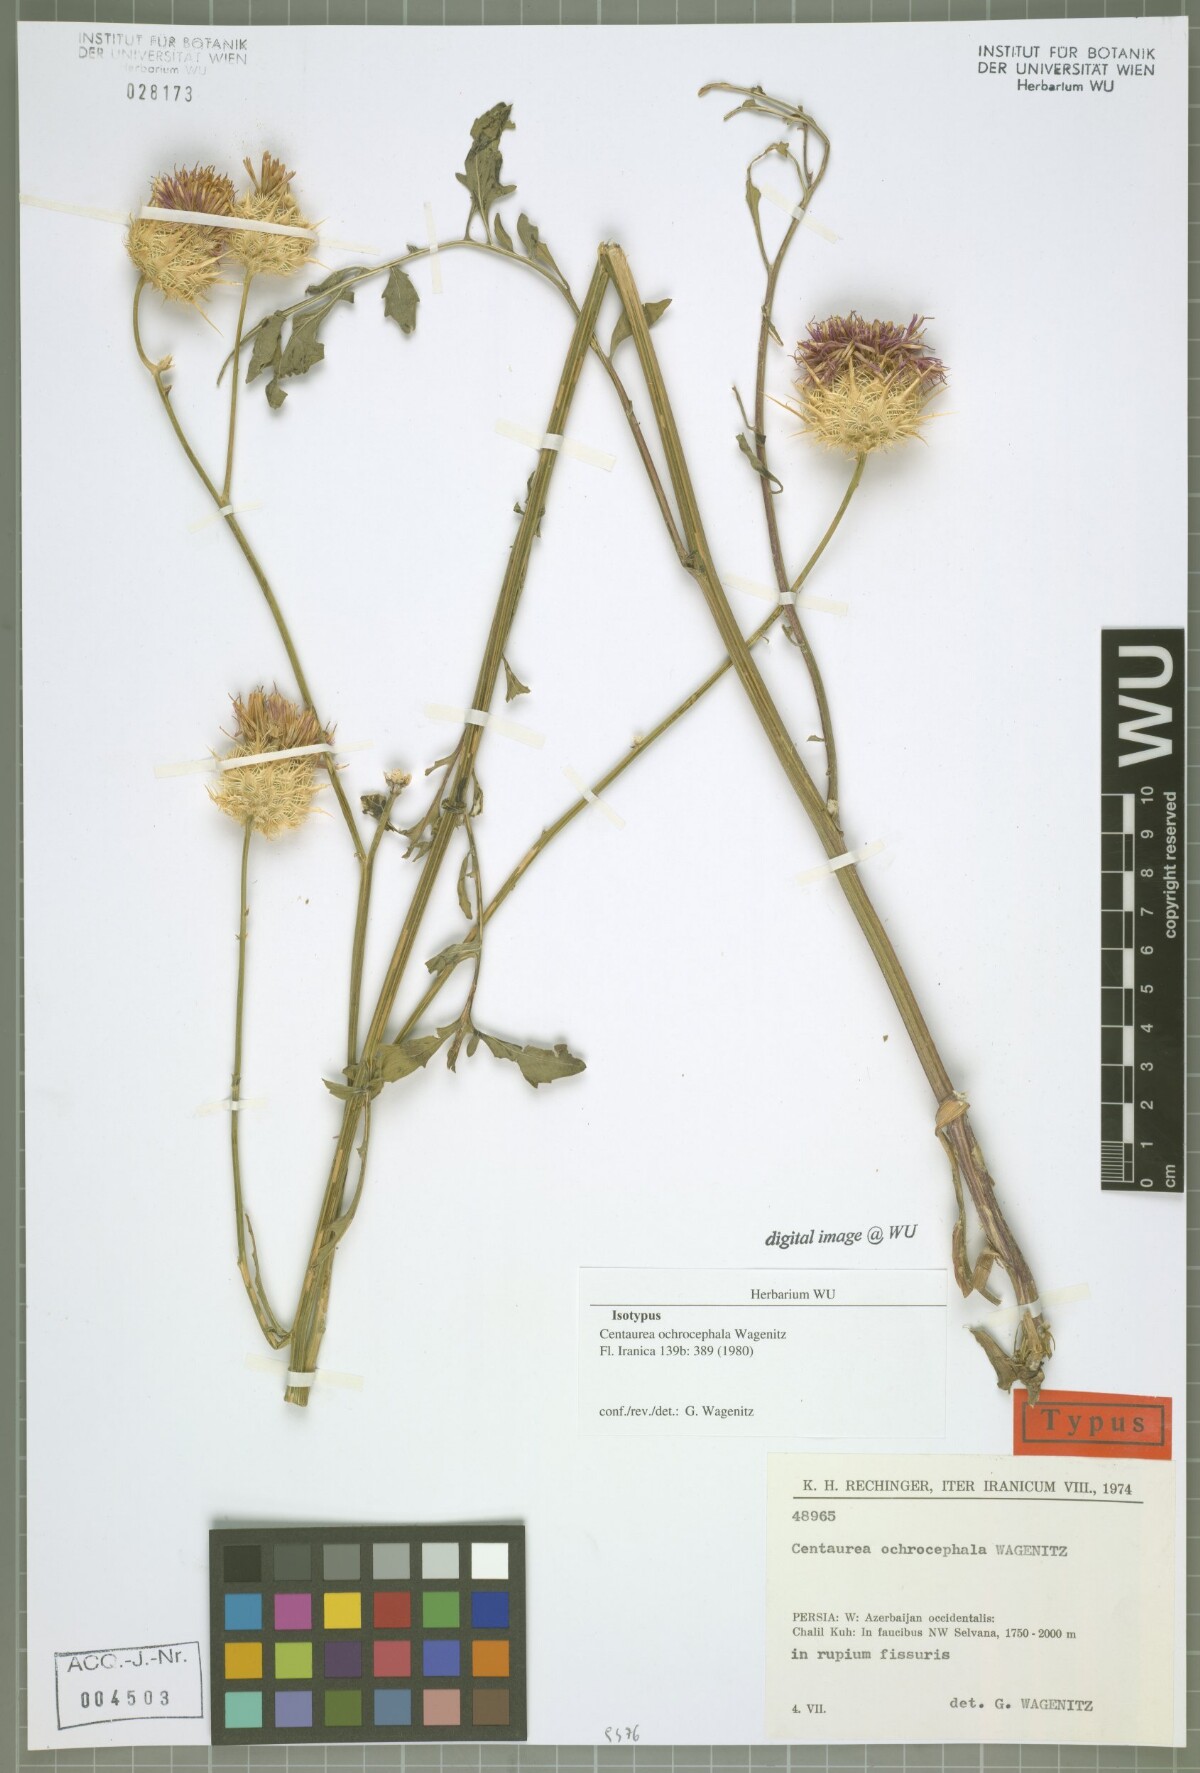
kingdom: Plantae
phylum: Tracheophyta
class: Magnoliopsida
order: Asterales
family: Asteraceae
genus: Centaurea
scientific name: Centaurea ochrocephala
